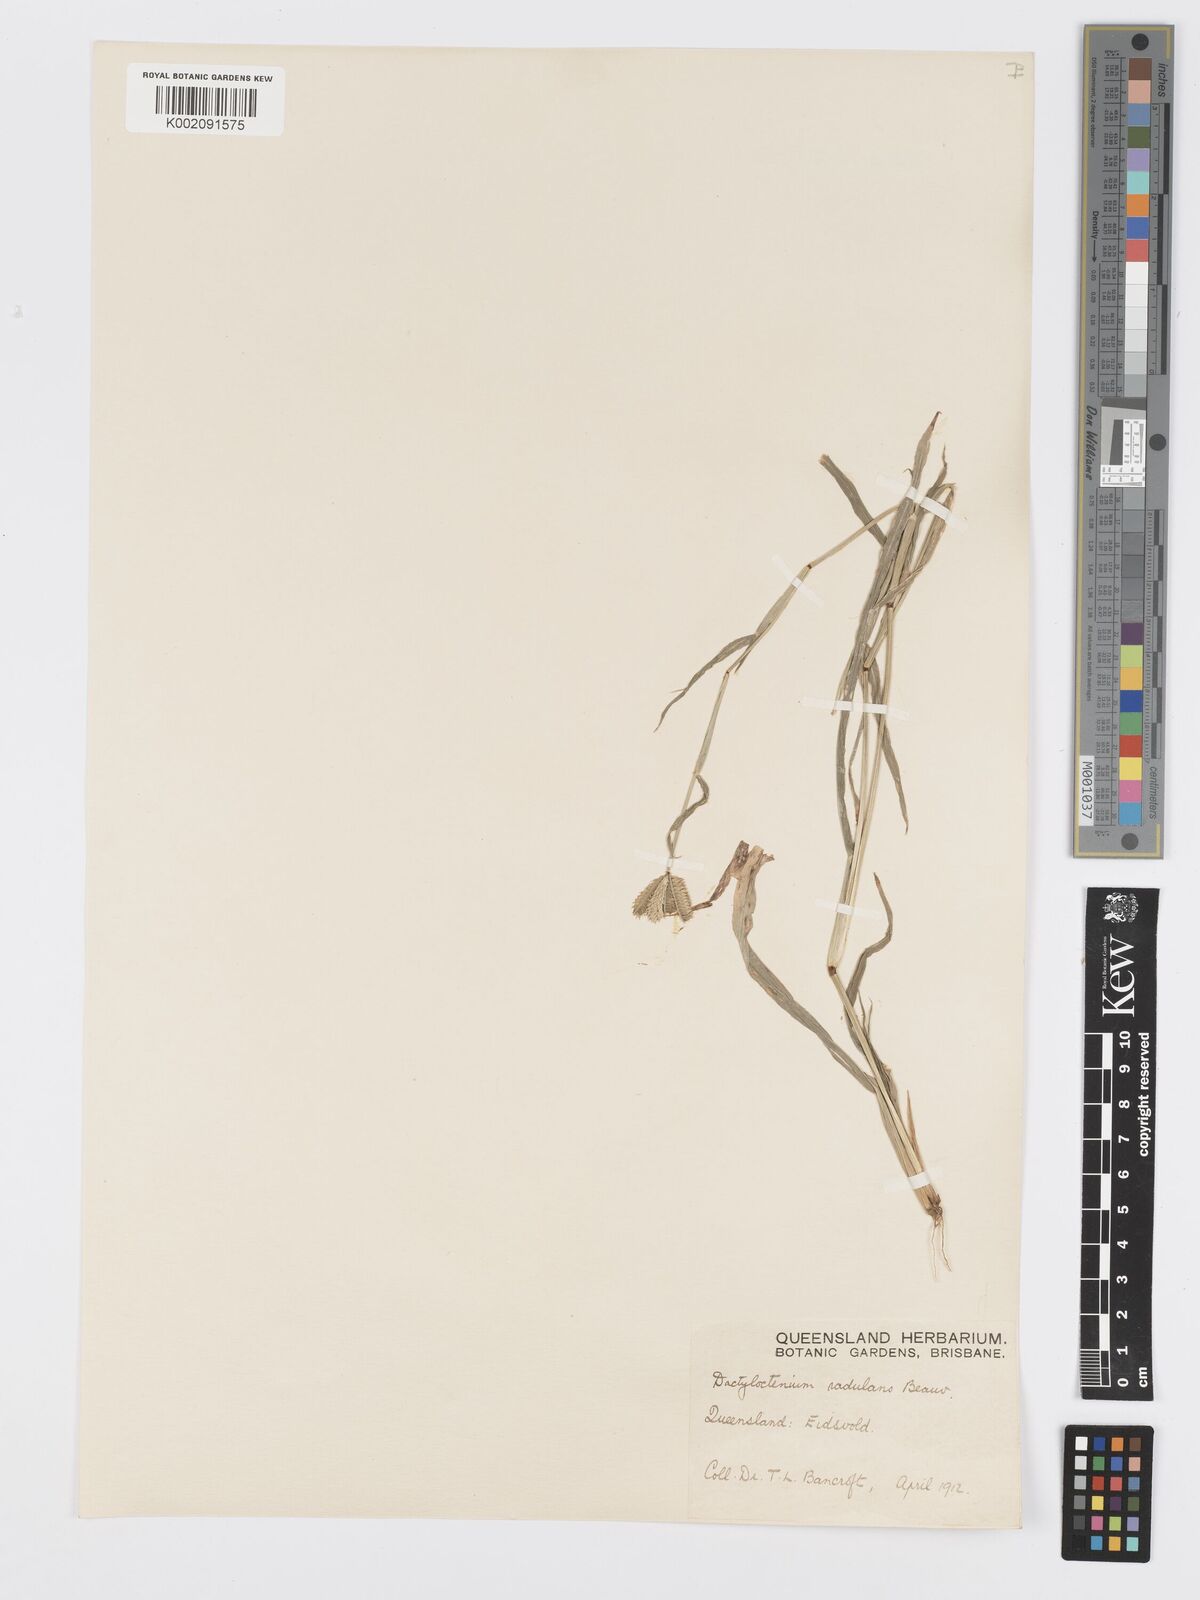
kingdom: Plantae
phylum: Tracheophyta
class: Liliopsida
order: Poales
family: Poaceae
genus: Dactyloctenium
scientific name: Dactyloctenium radulans
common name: Button-grass
